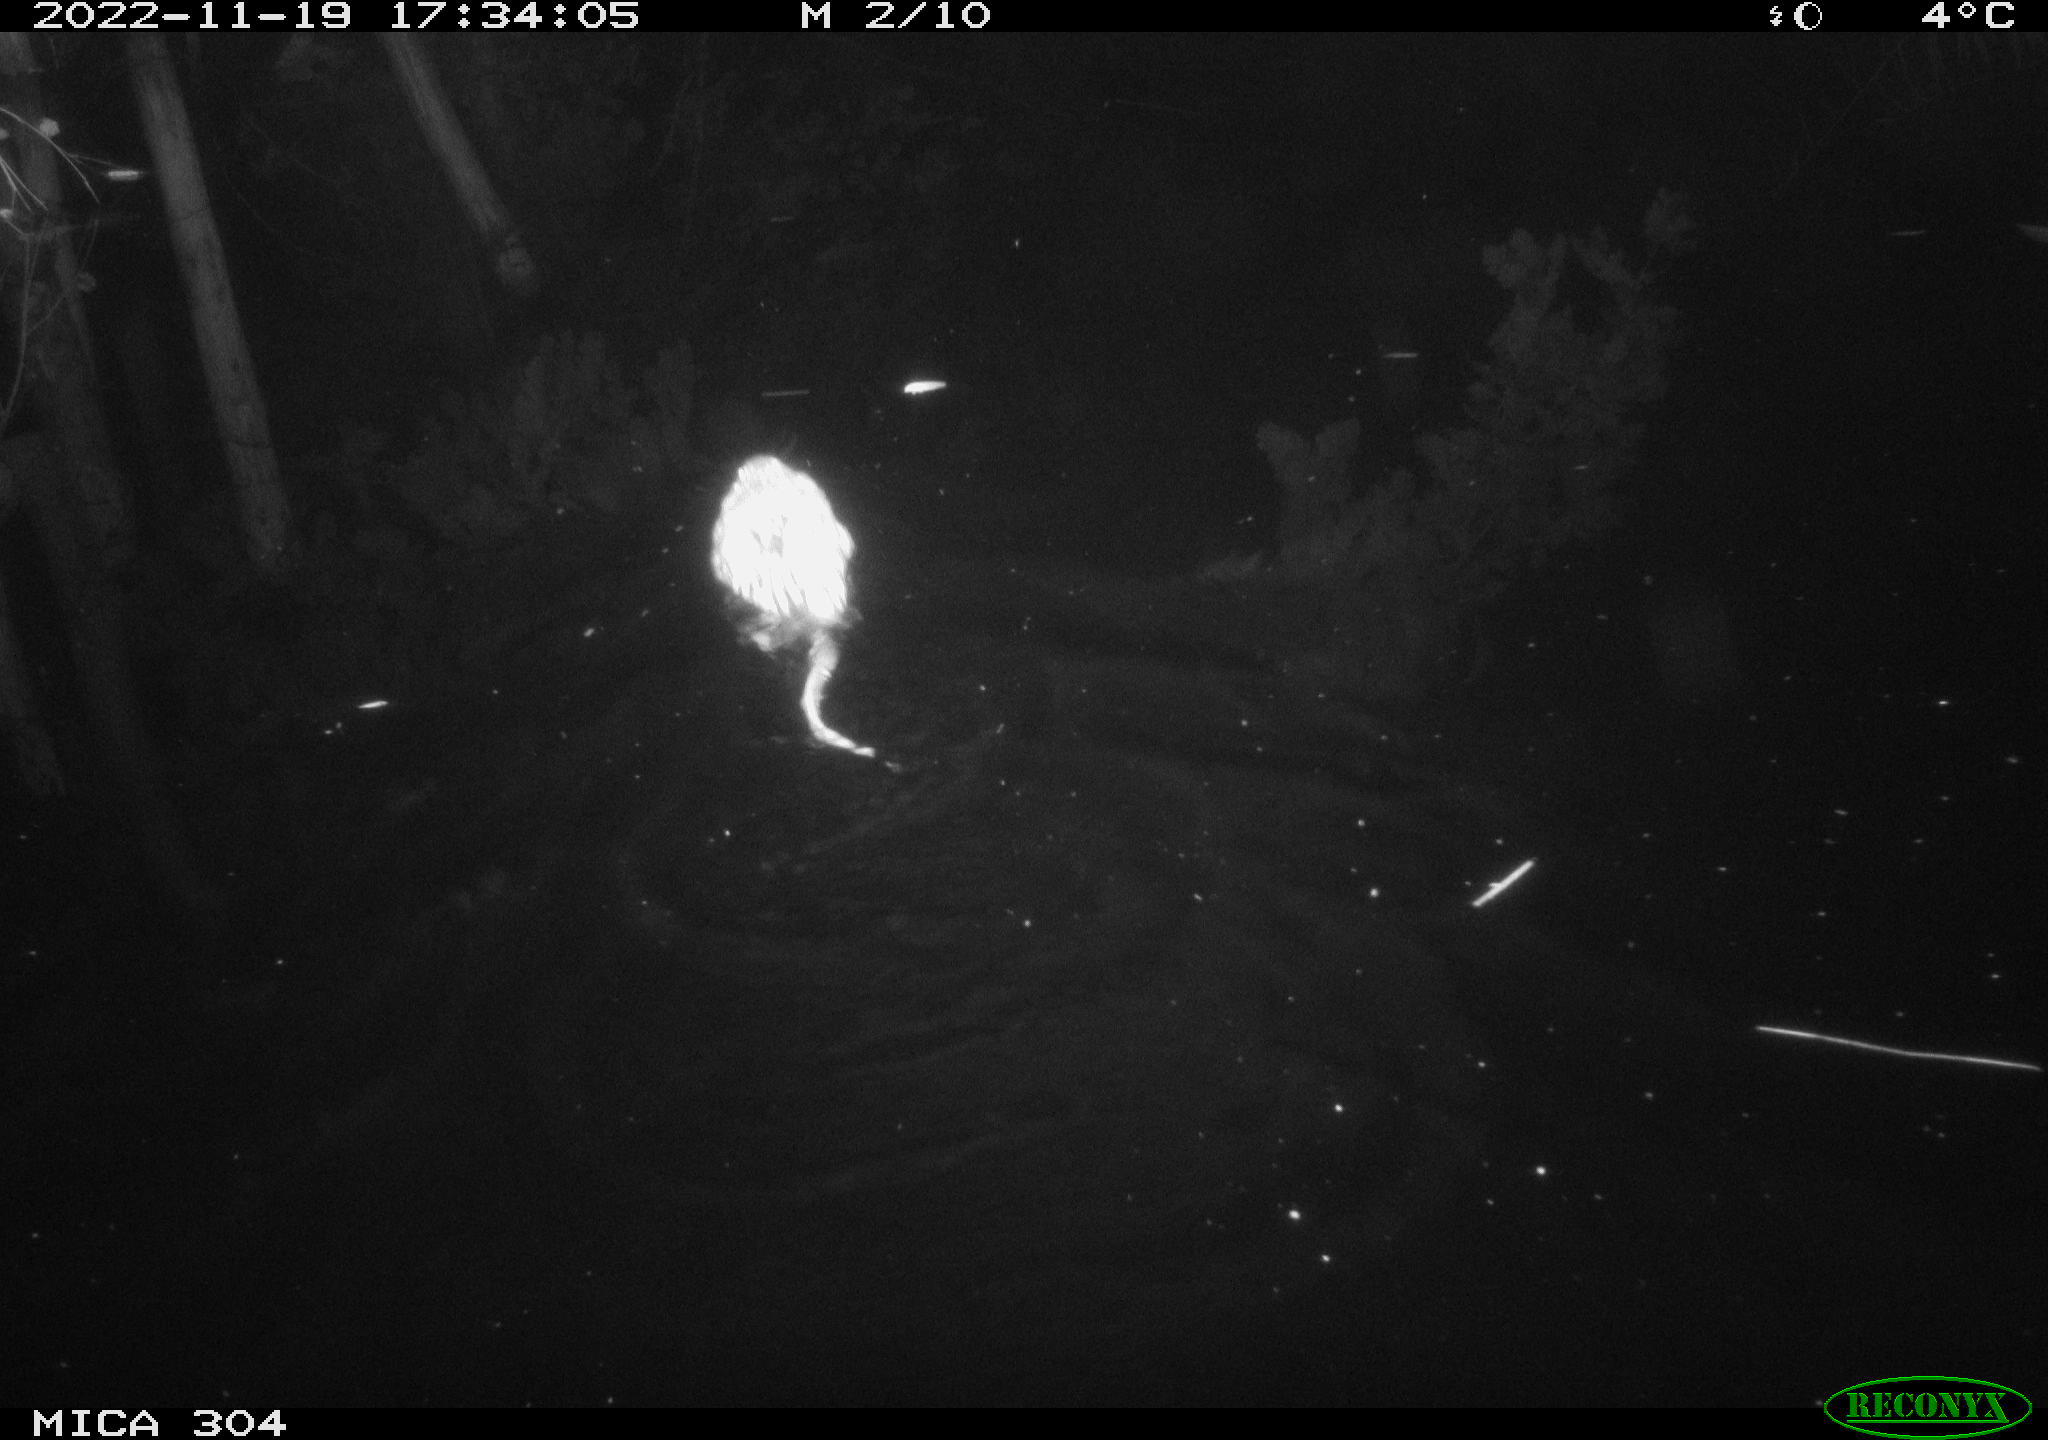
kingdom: Animalia
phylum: Chordata
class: Mammalia
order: Rodentia
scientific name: Rodentia
